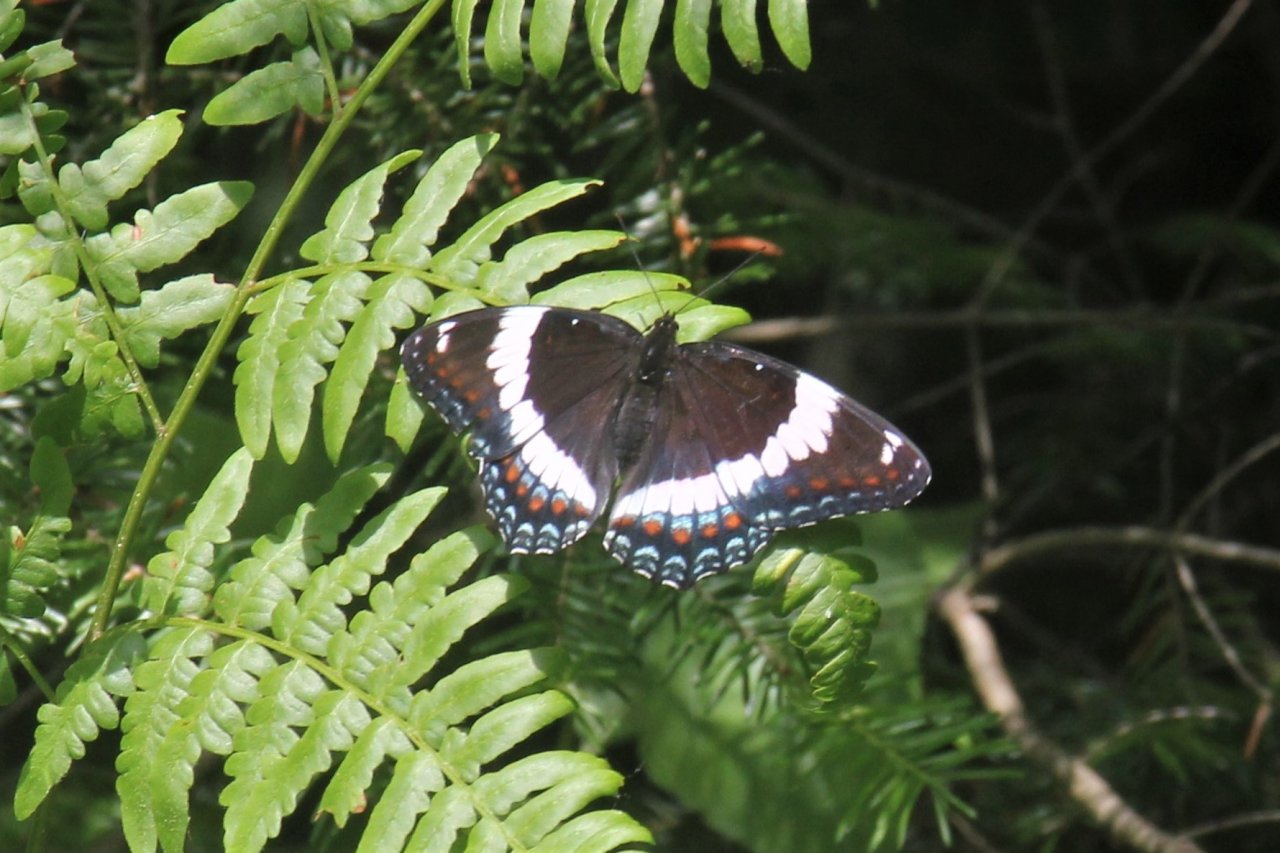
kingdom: Animalia
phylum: Arthropoda
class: Insecta
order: Lepidoptera
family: Nymphalidae
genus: Limenitis
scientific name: Limenitis arthemis
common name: Red-spotted Admiral
